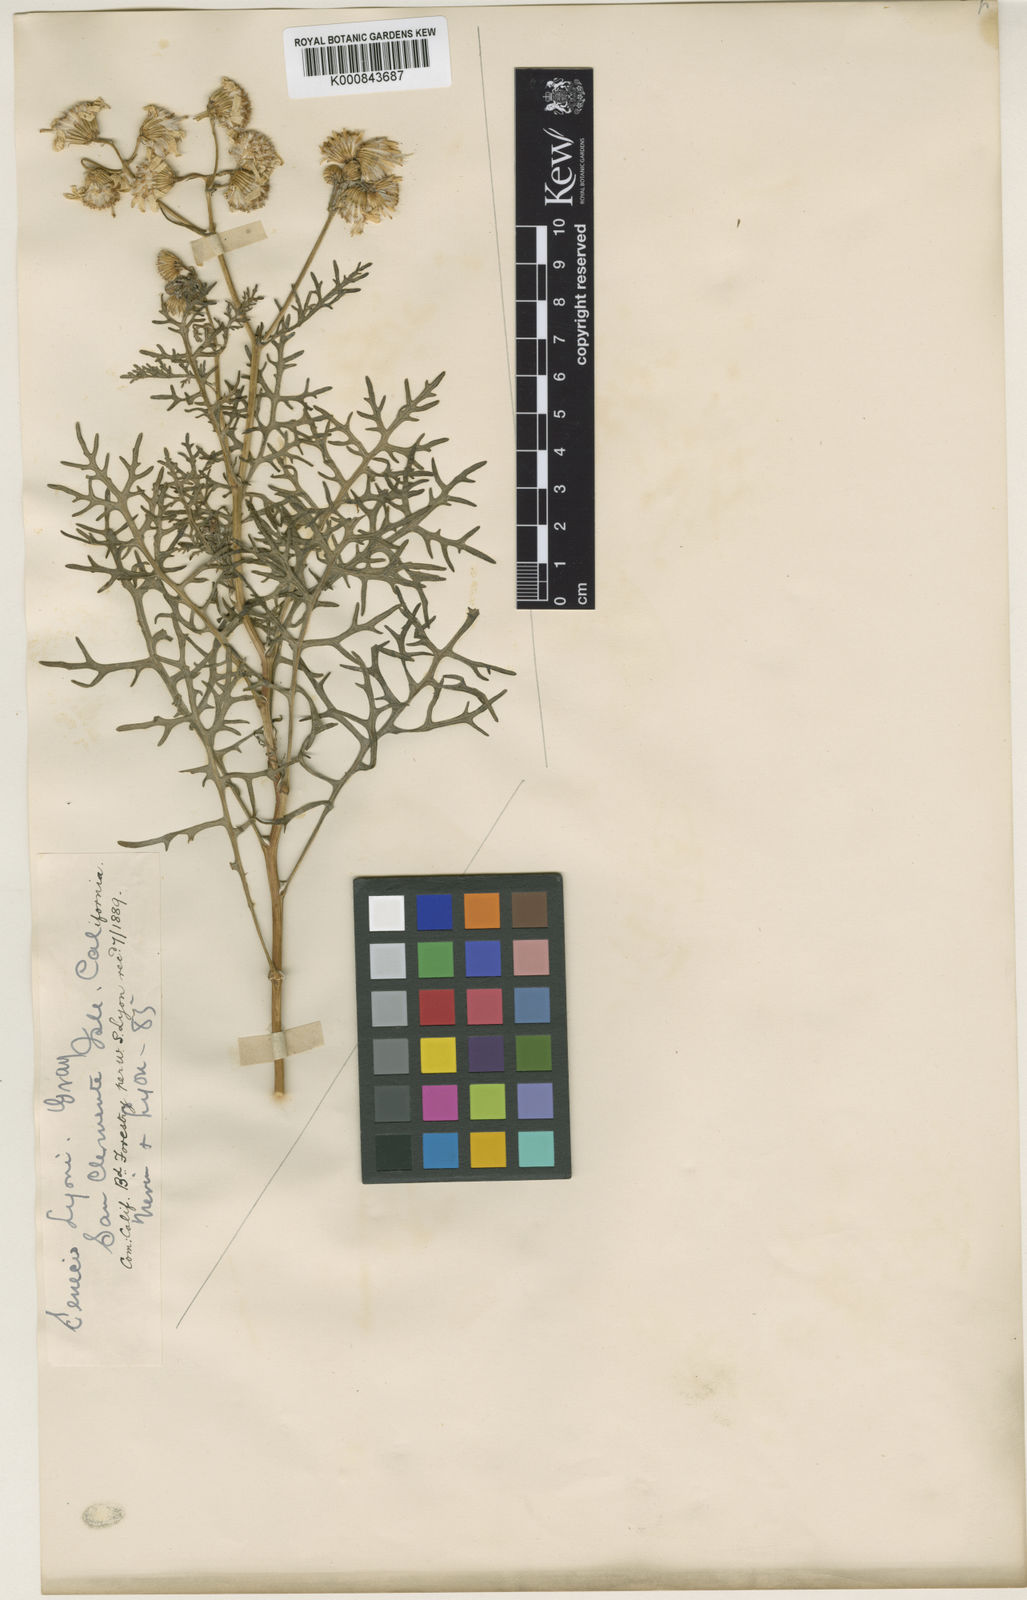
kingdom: Plantae
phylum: Tracheophyta
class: Magnoliopsida
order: Asterales
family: Asteraceae
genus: Senecio
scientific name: Senecio lyonii
